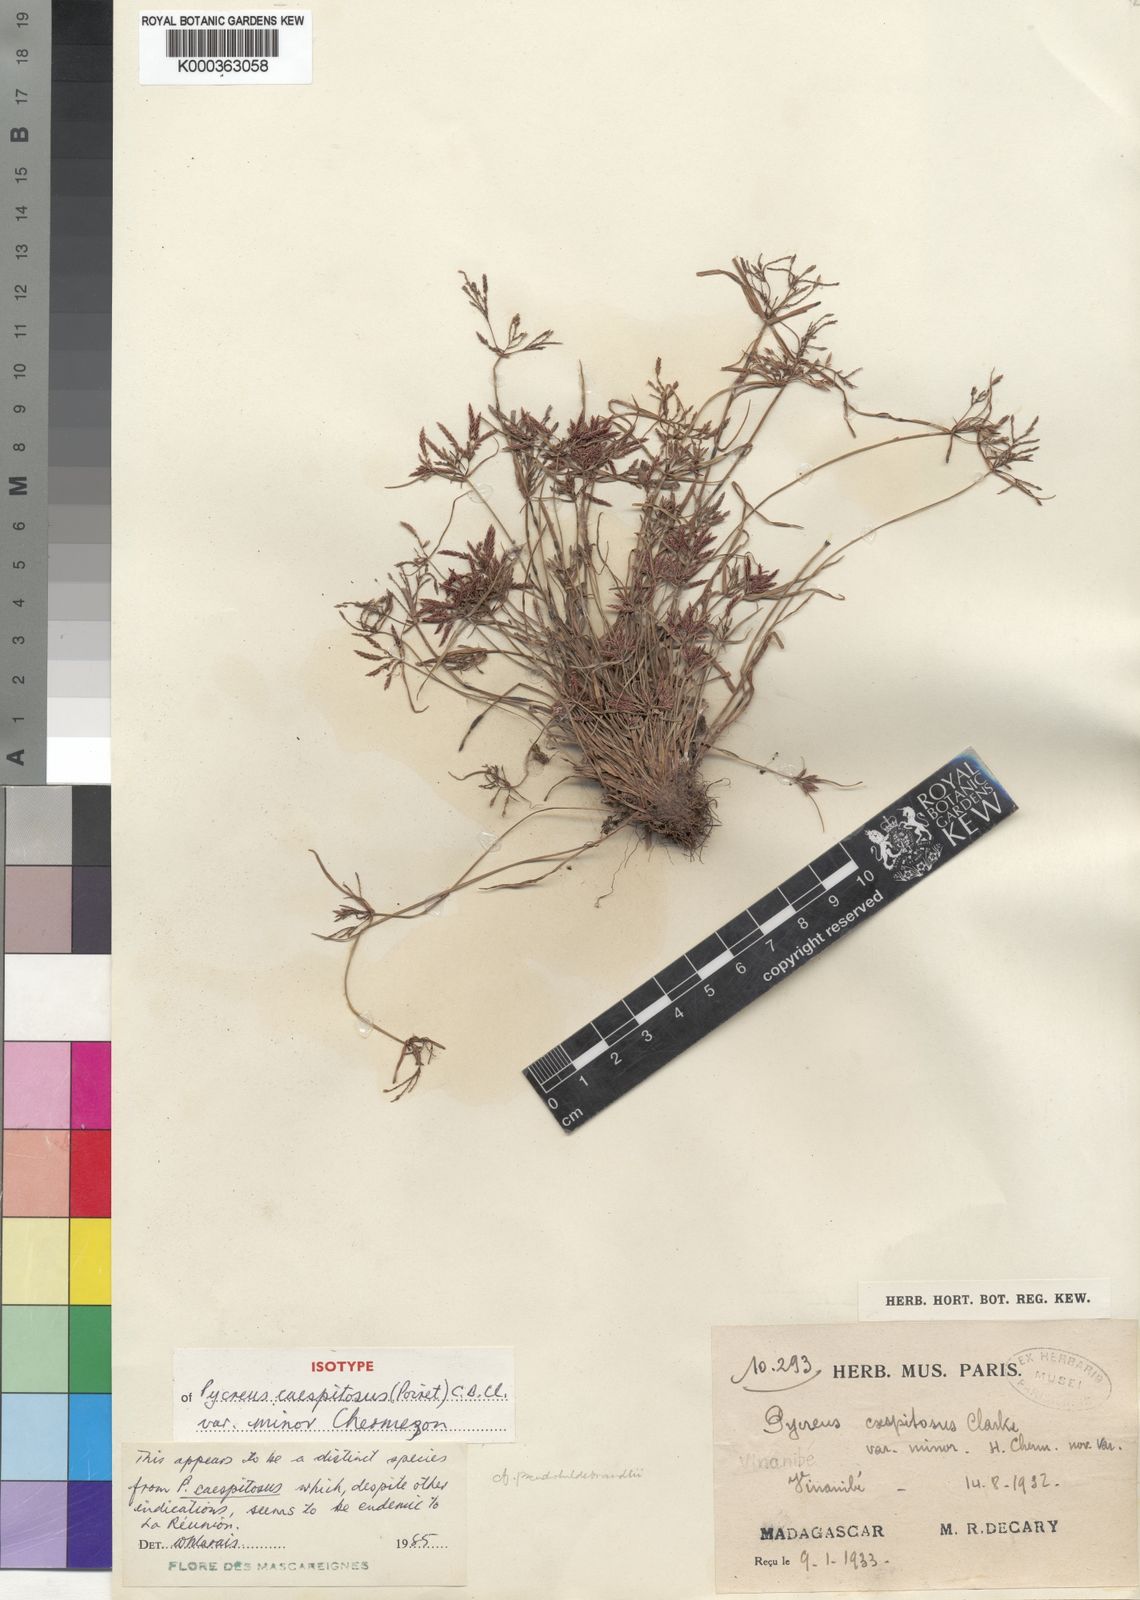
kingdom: Plantae
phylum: Tracheophyta
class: Liliopsida
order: Poales
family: Cyperaceae
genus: Cyperus
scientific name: Cyperus polystachyos
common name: Bunchy flat sedge
